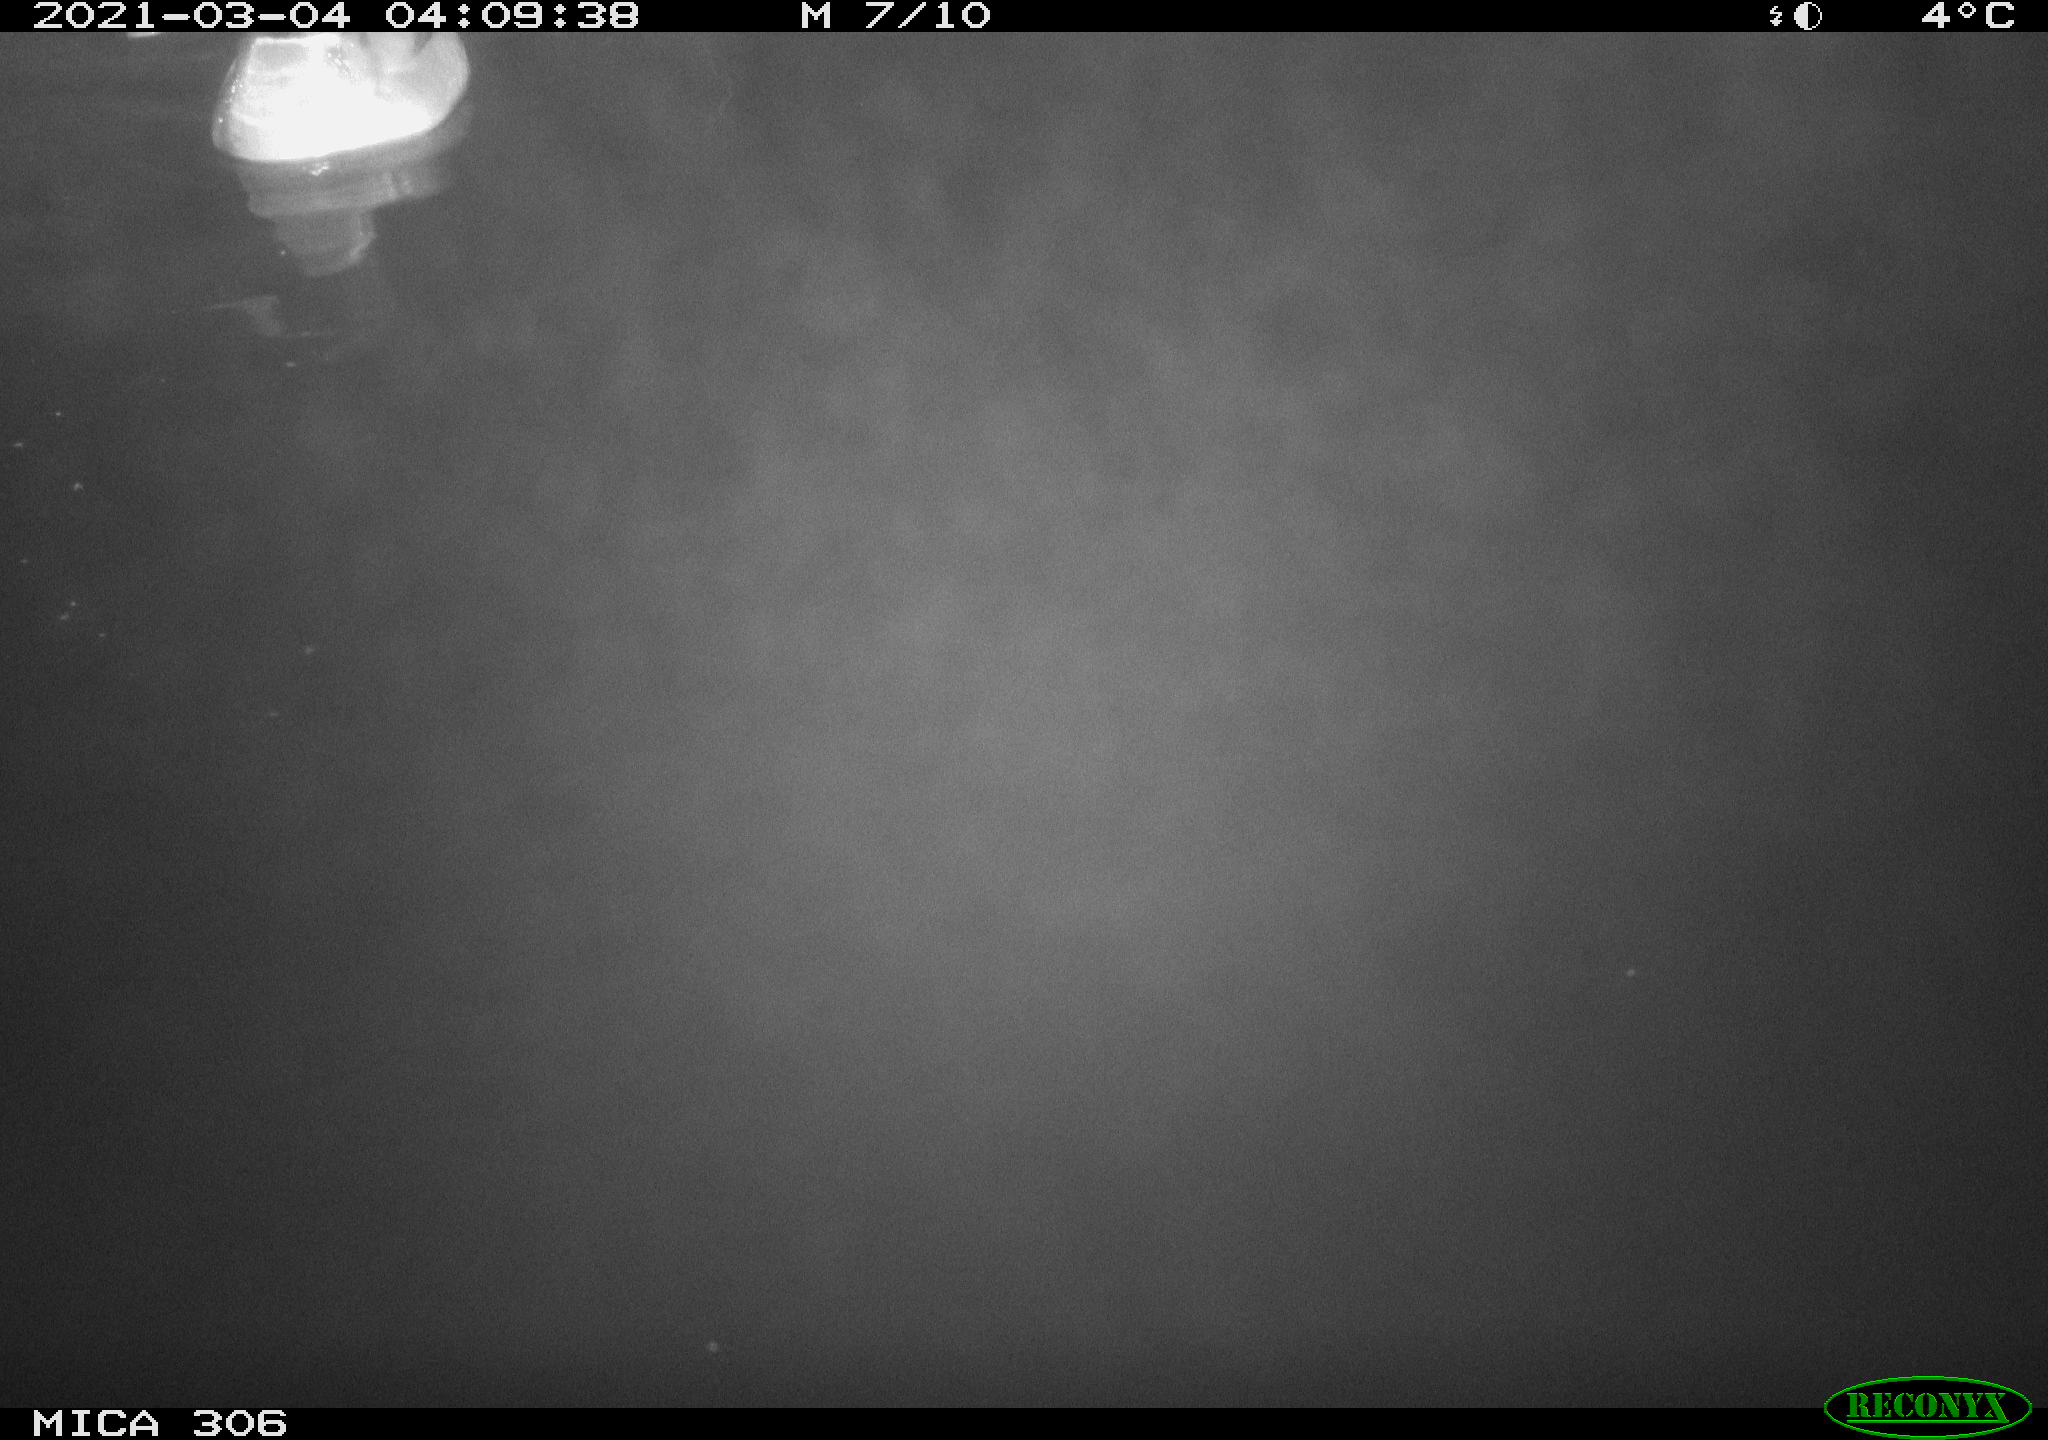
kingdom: Animalia
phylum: Chordata
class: Aves
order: Anseriformes
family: Anatidae
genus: Anas
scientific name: Anas platyrhynchos
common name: Mallard
